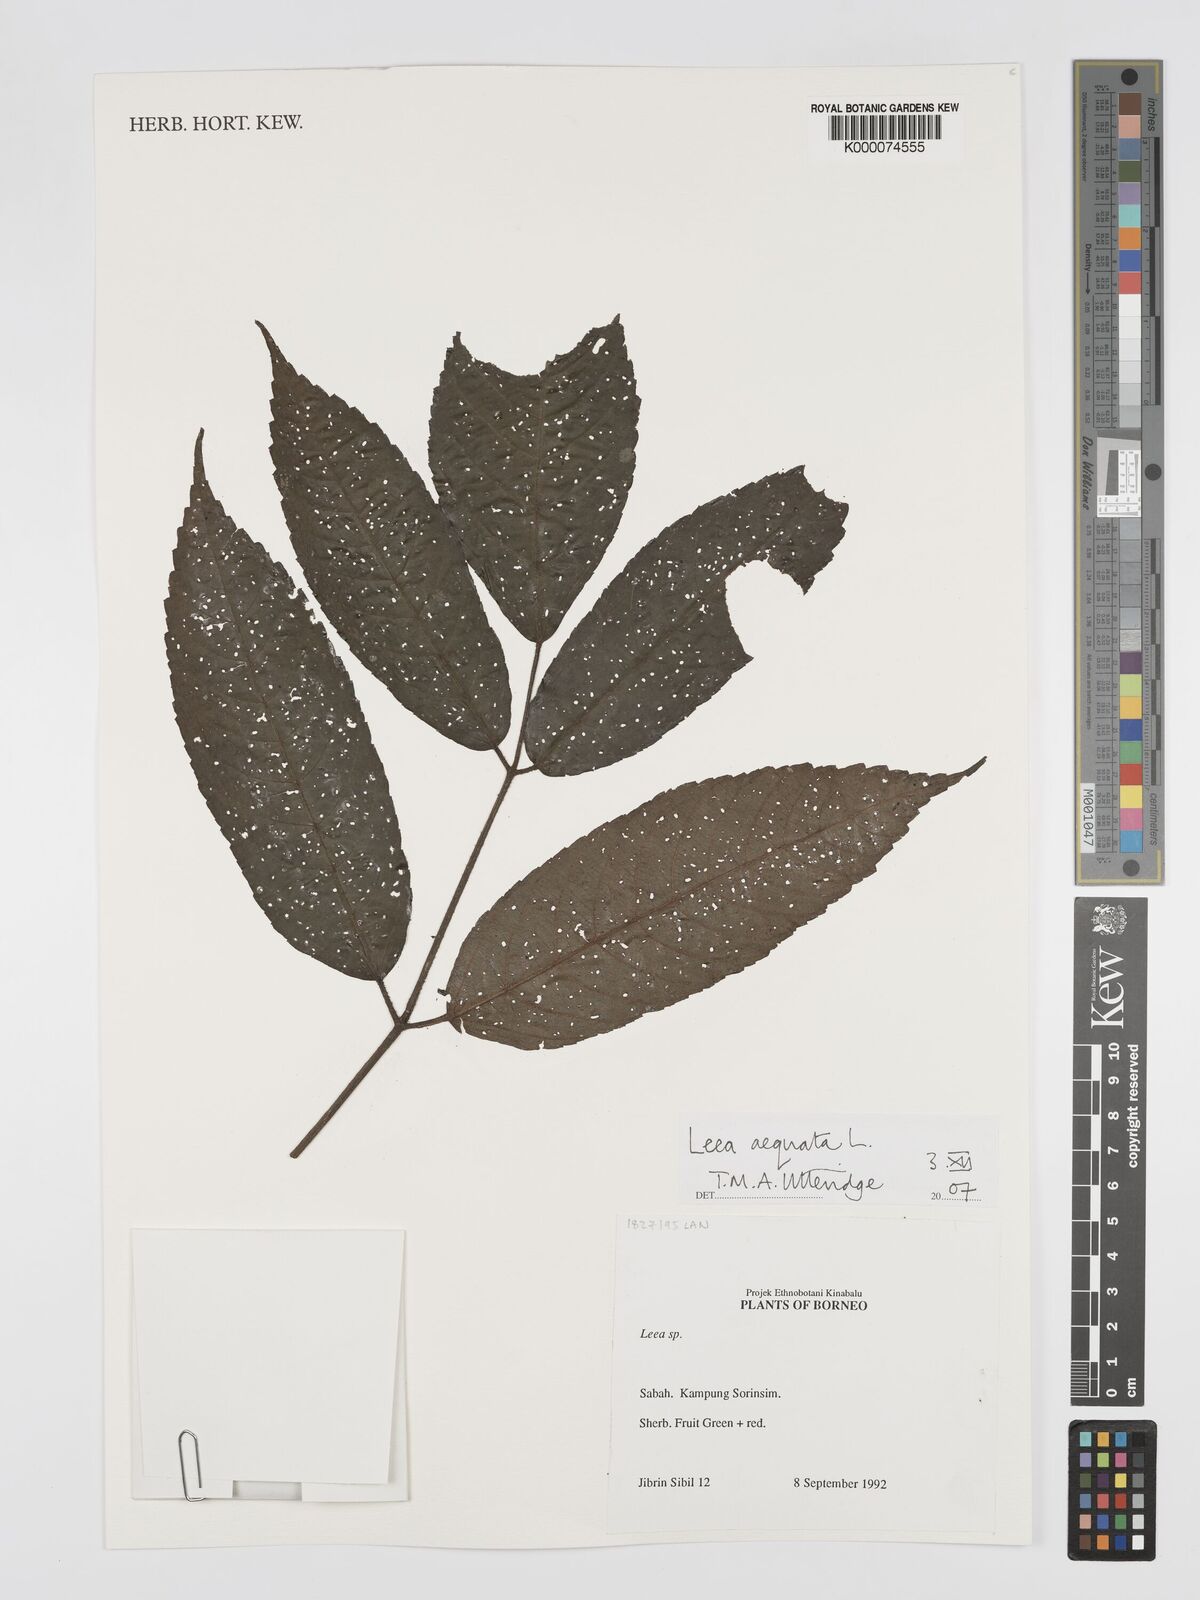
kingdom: Plantae
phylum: Tracheophyta
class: Magnoliopsida
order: Vitales
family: Vitaceae
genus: Leea
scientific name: Leea aequata
